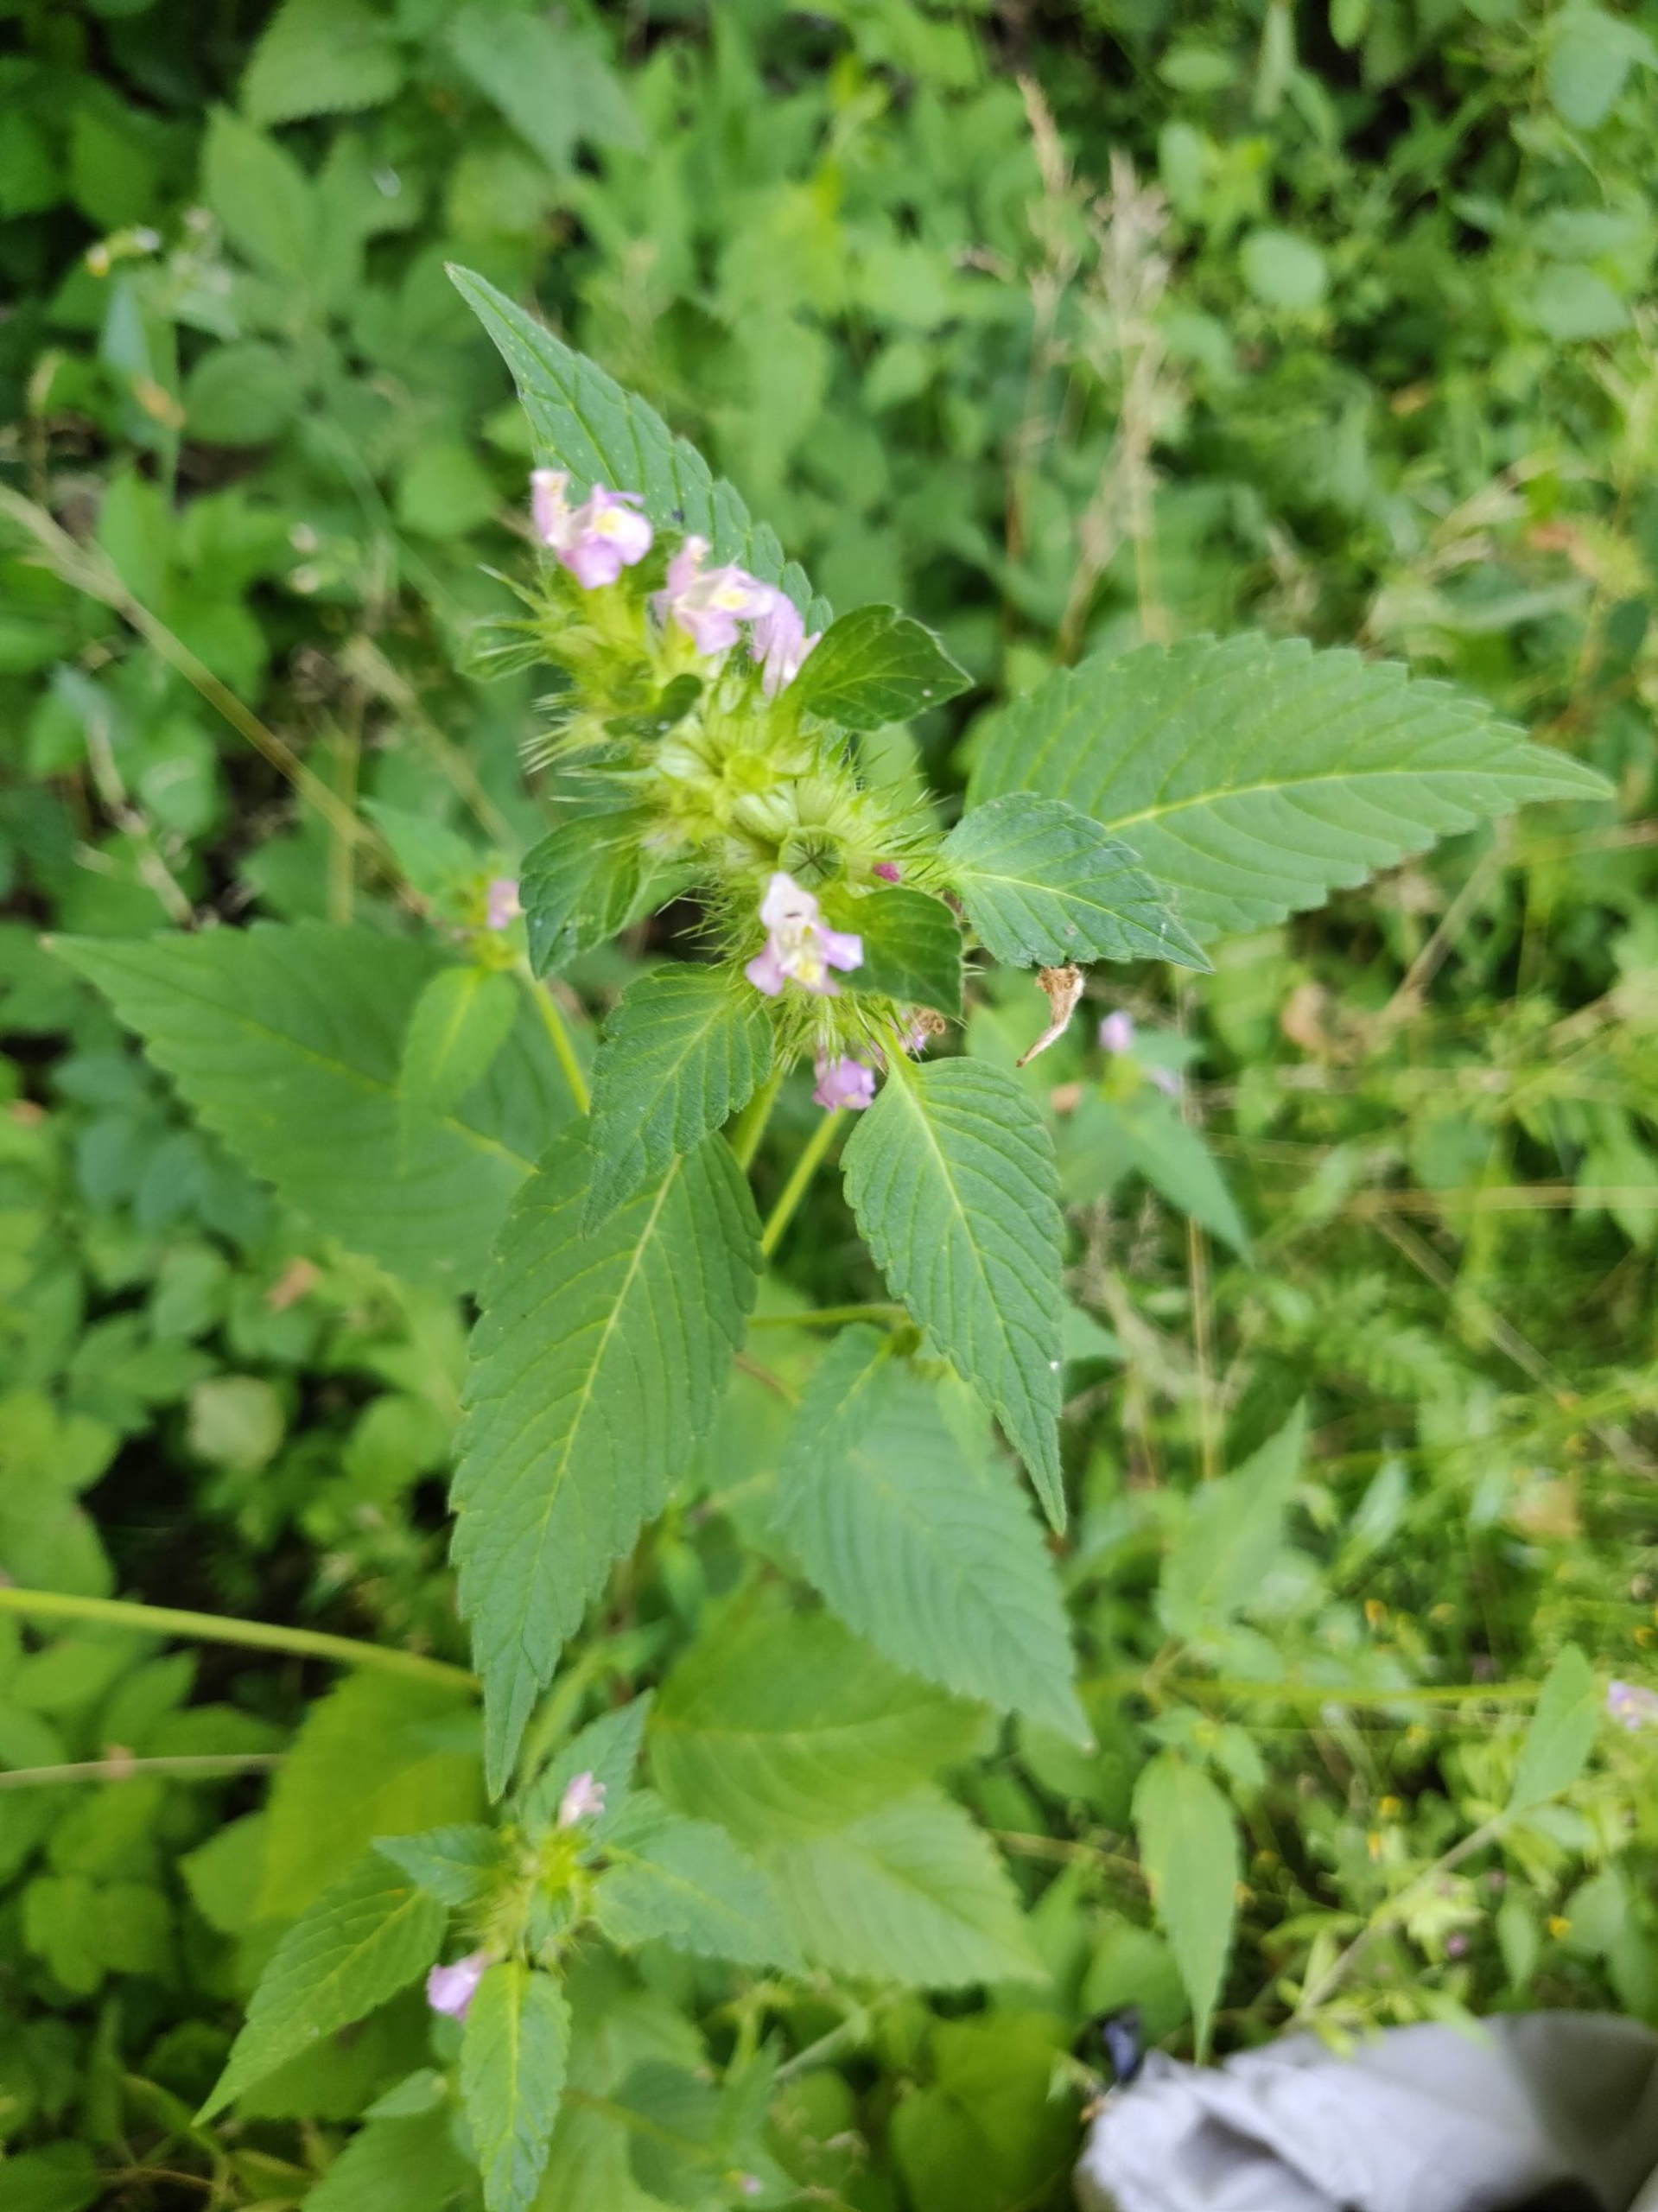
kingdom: Plantae
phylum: Tracheophyta
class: Magnoliopsida
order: Lamiales
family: Lamiaceae
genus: Galeopsis
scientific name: Galeopsis tetrahit
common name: Almindelig hanekro
